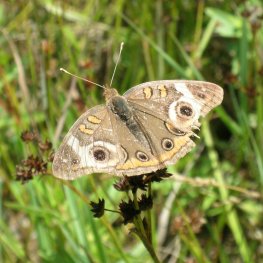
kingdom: Animalia
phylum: Arthropoda
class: Insecta
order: Lepidoptera
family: Nymphalidae
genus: Junonia
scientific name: Junonia coenia
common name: Common Buckeye
